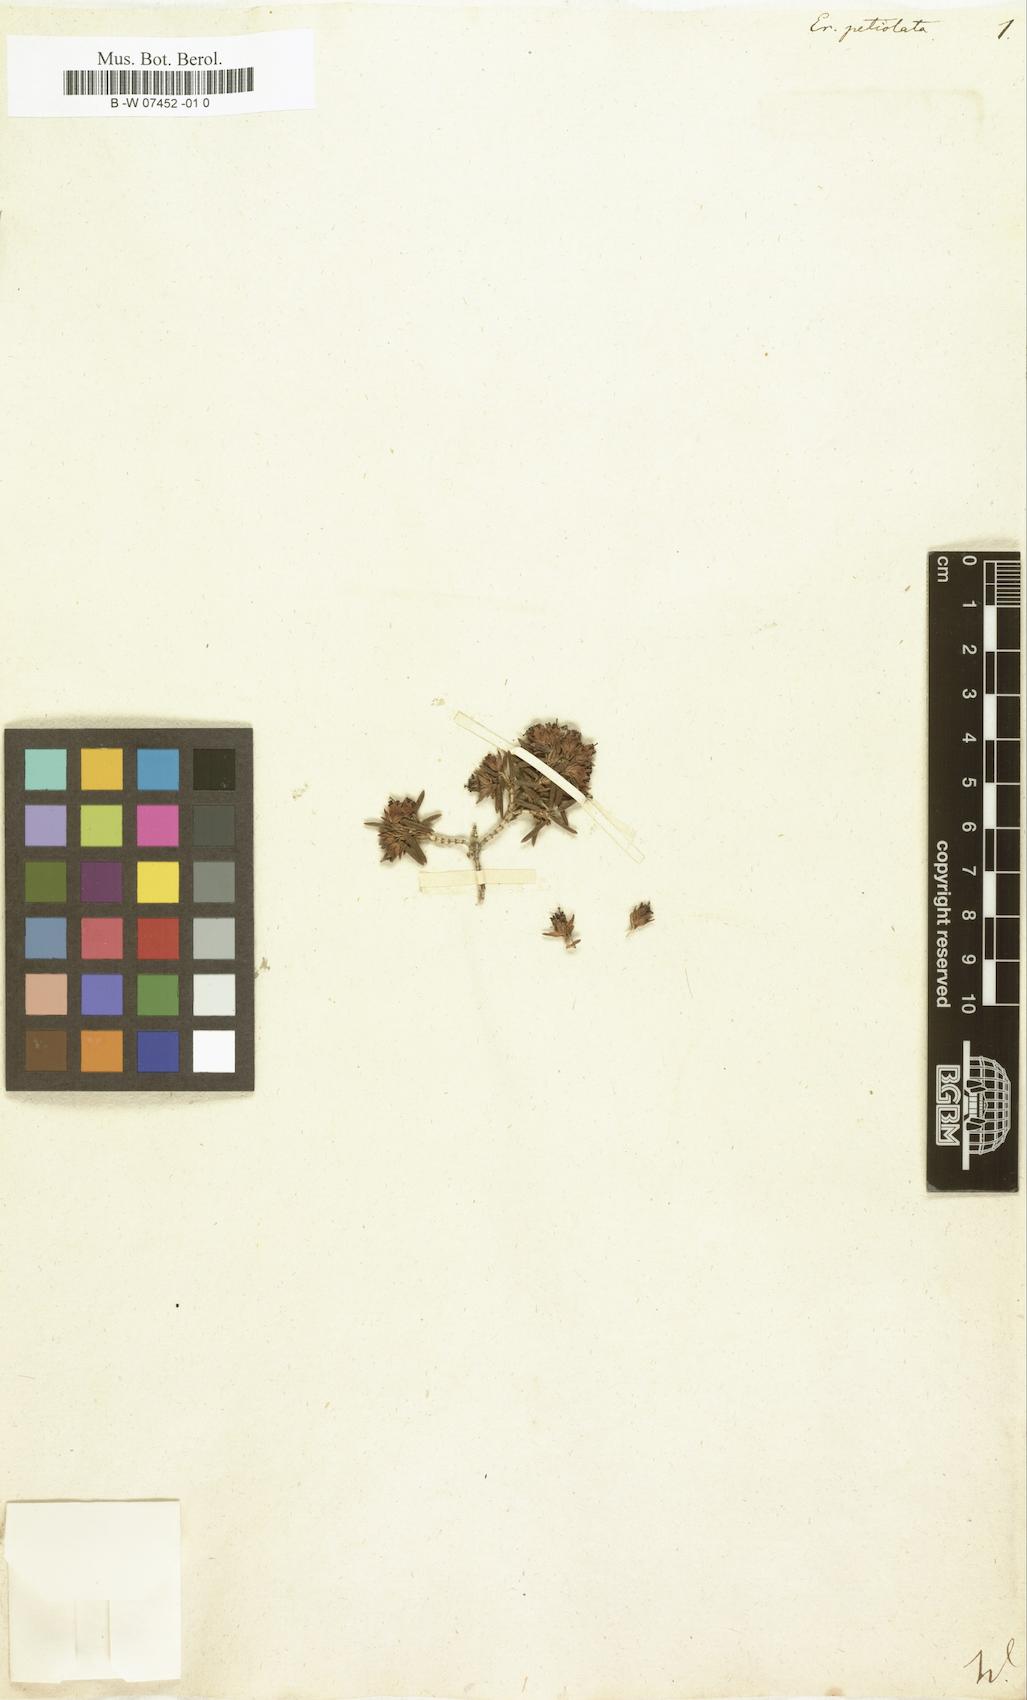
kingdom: Plantae
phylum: Tracheophyta
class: Magnoliopsida
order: Ericales
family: Ericaceae
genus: Erica
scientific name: Erica petiolaris
